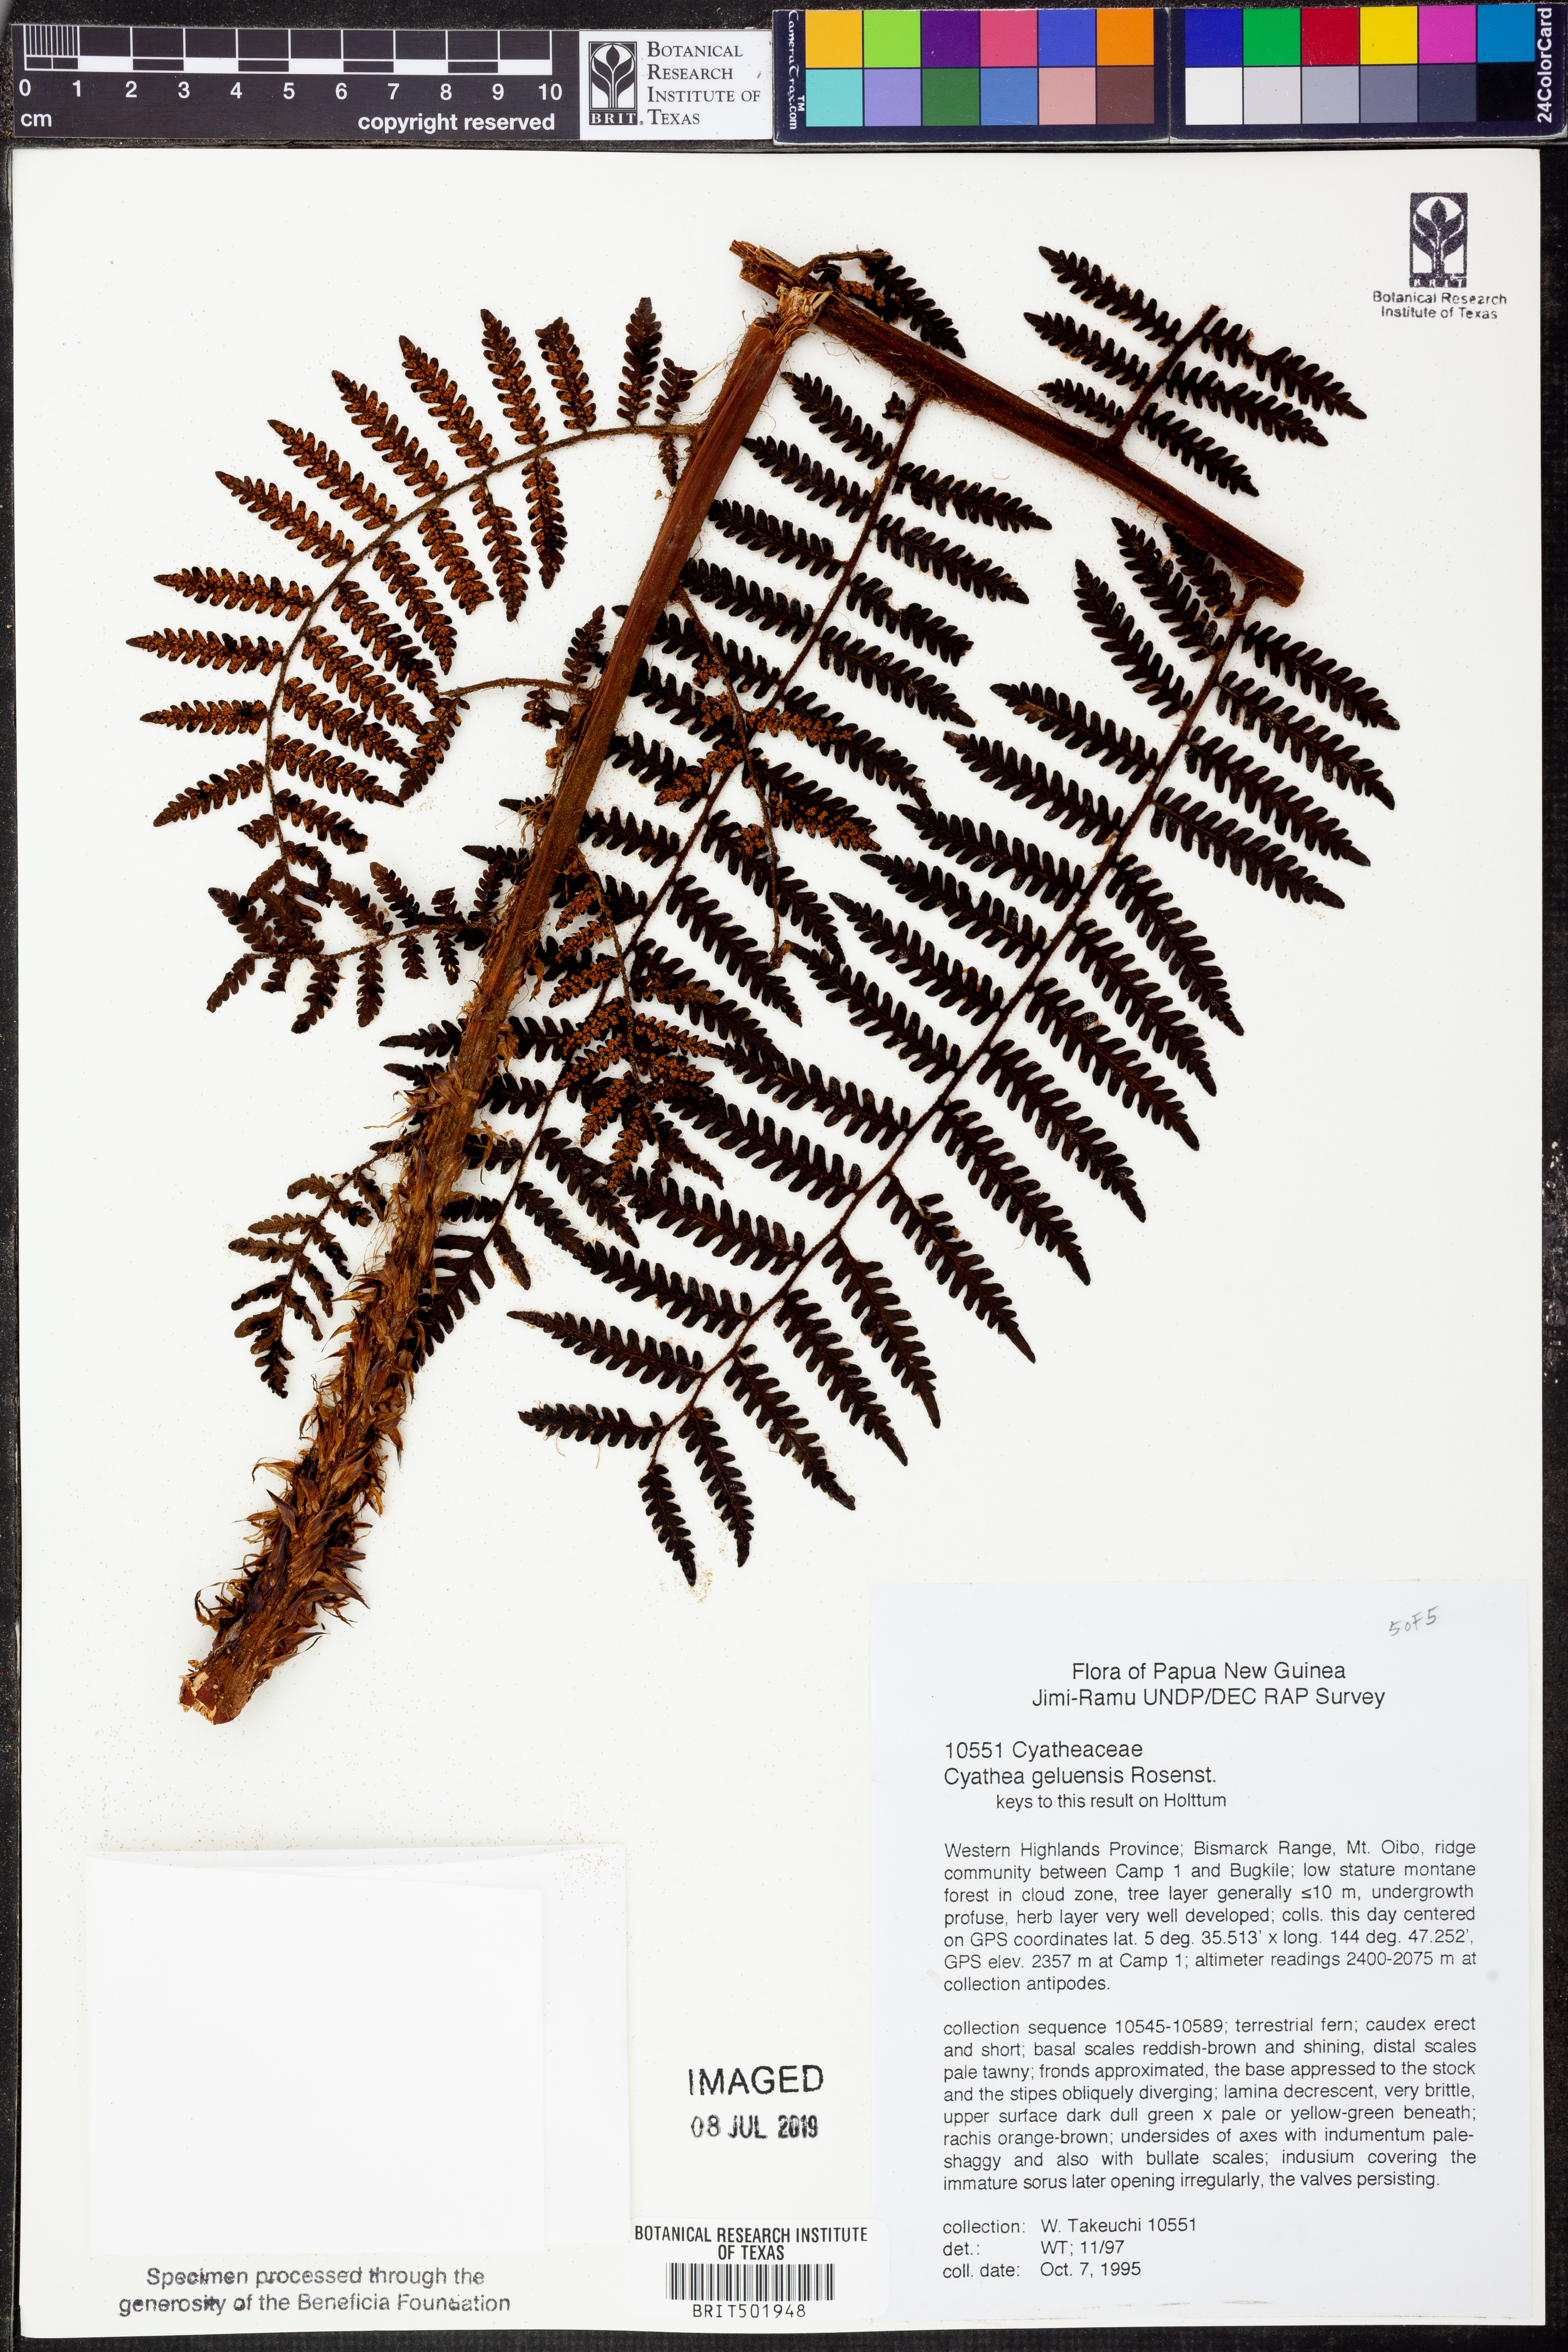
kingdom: Plantae
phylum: Tracheophyta
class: Polypodiopsida
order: Cyatheales
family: Cyatheaceae
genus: Alsophila
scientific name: Alsophila geluensis
